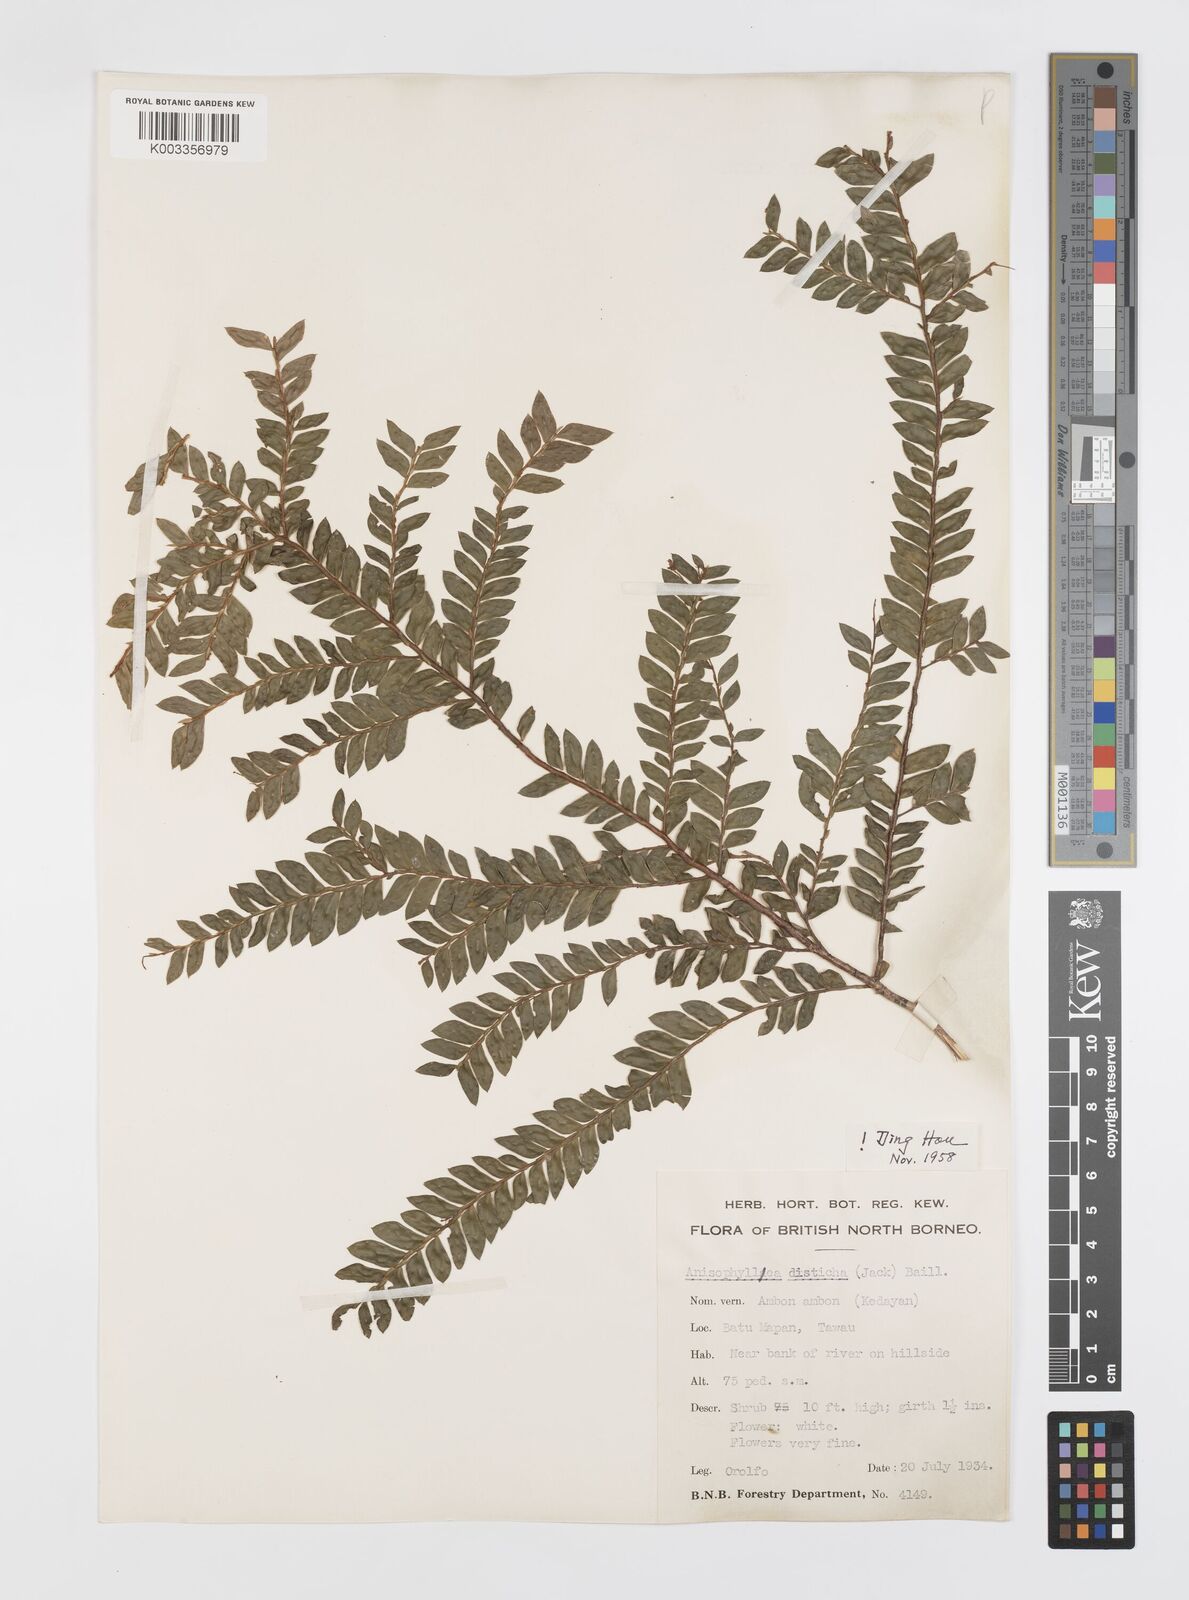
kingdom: Plantae
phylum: Tracheophyta
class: Magnoliopsida
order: Cucurbitales
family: Anisophylleaceae
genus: Anisophyllea
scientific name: Anisophyllea disticha
